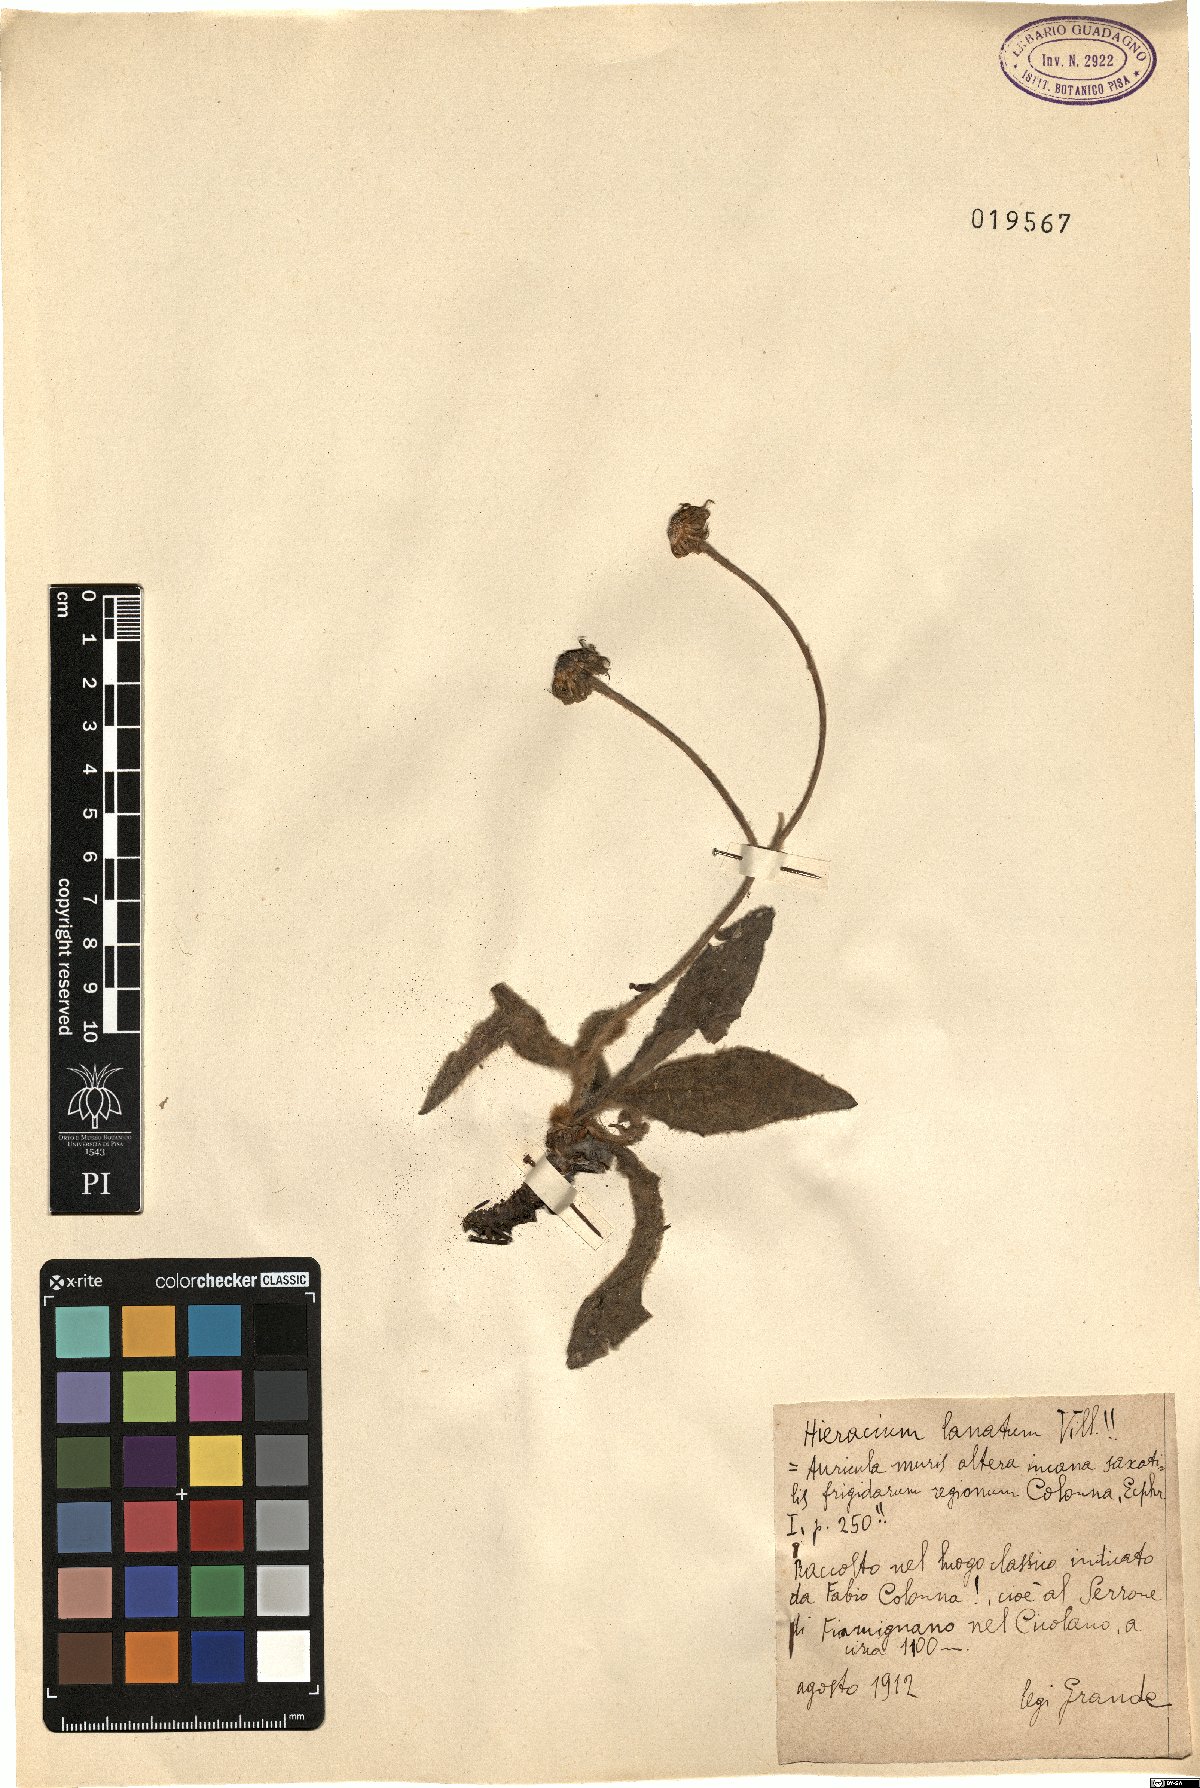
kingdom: Plantae
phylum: Tracheophyta
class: Magnoliopsida
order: Asterales
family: Asteraceae
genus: Hieracium
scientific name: Hieracium tomentosum
